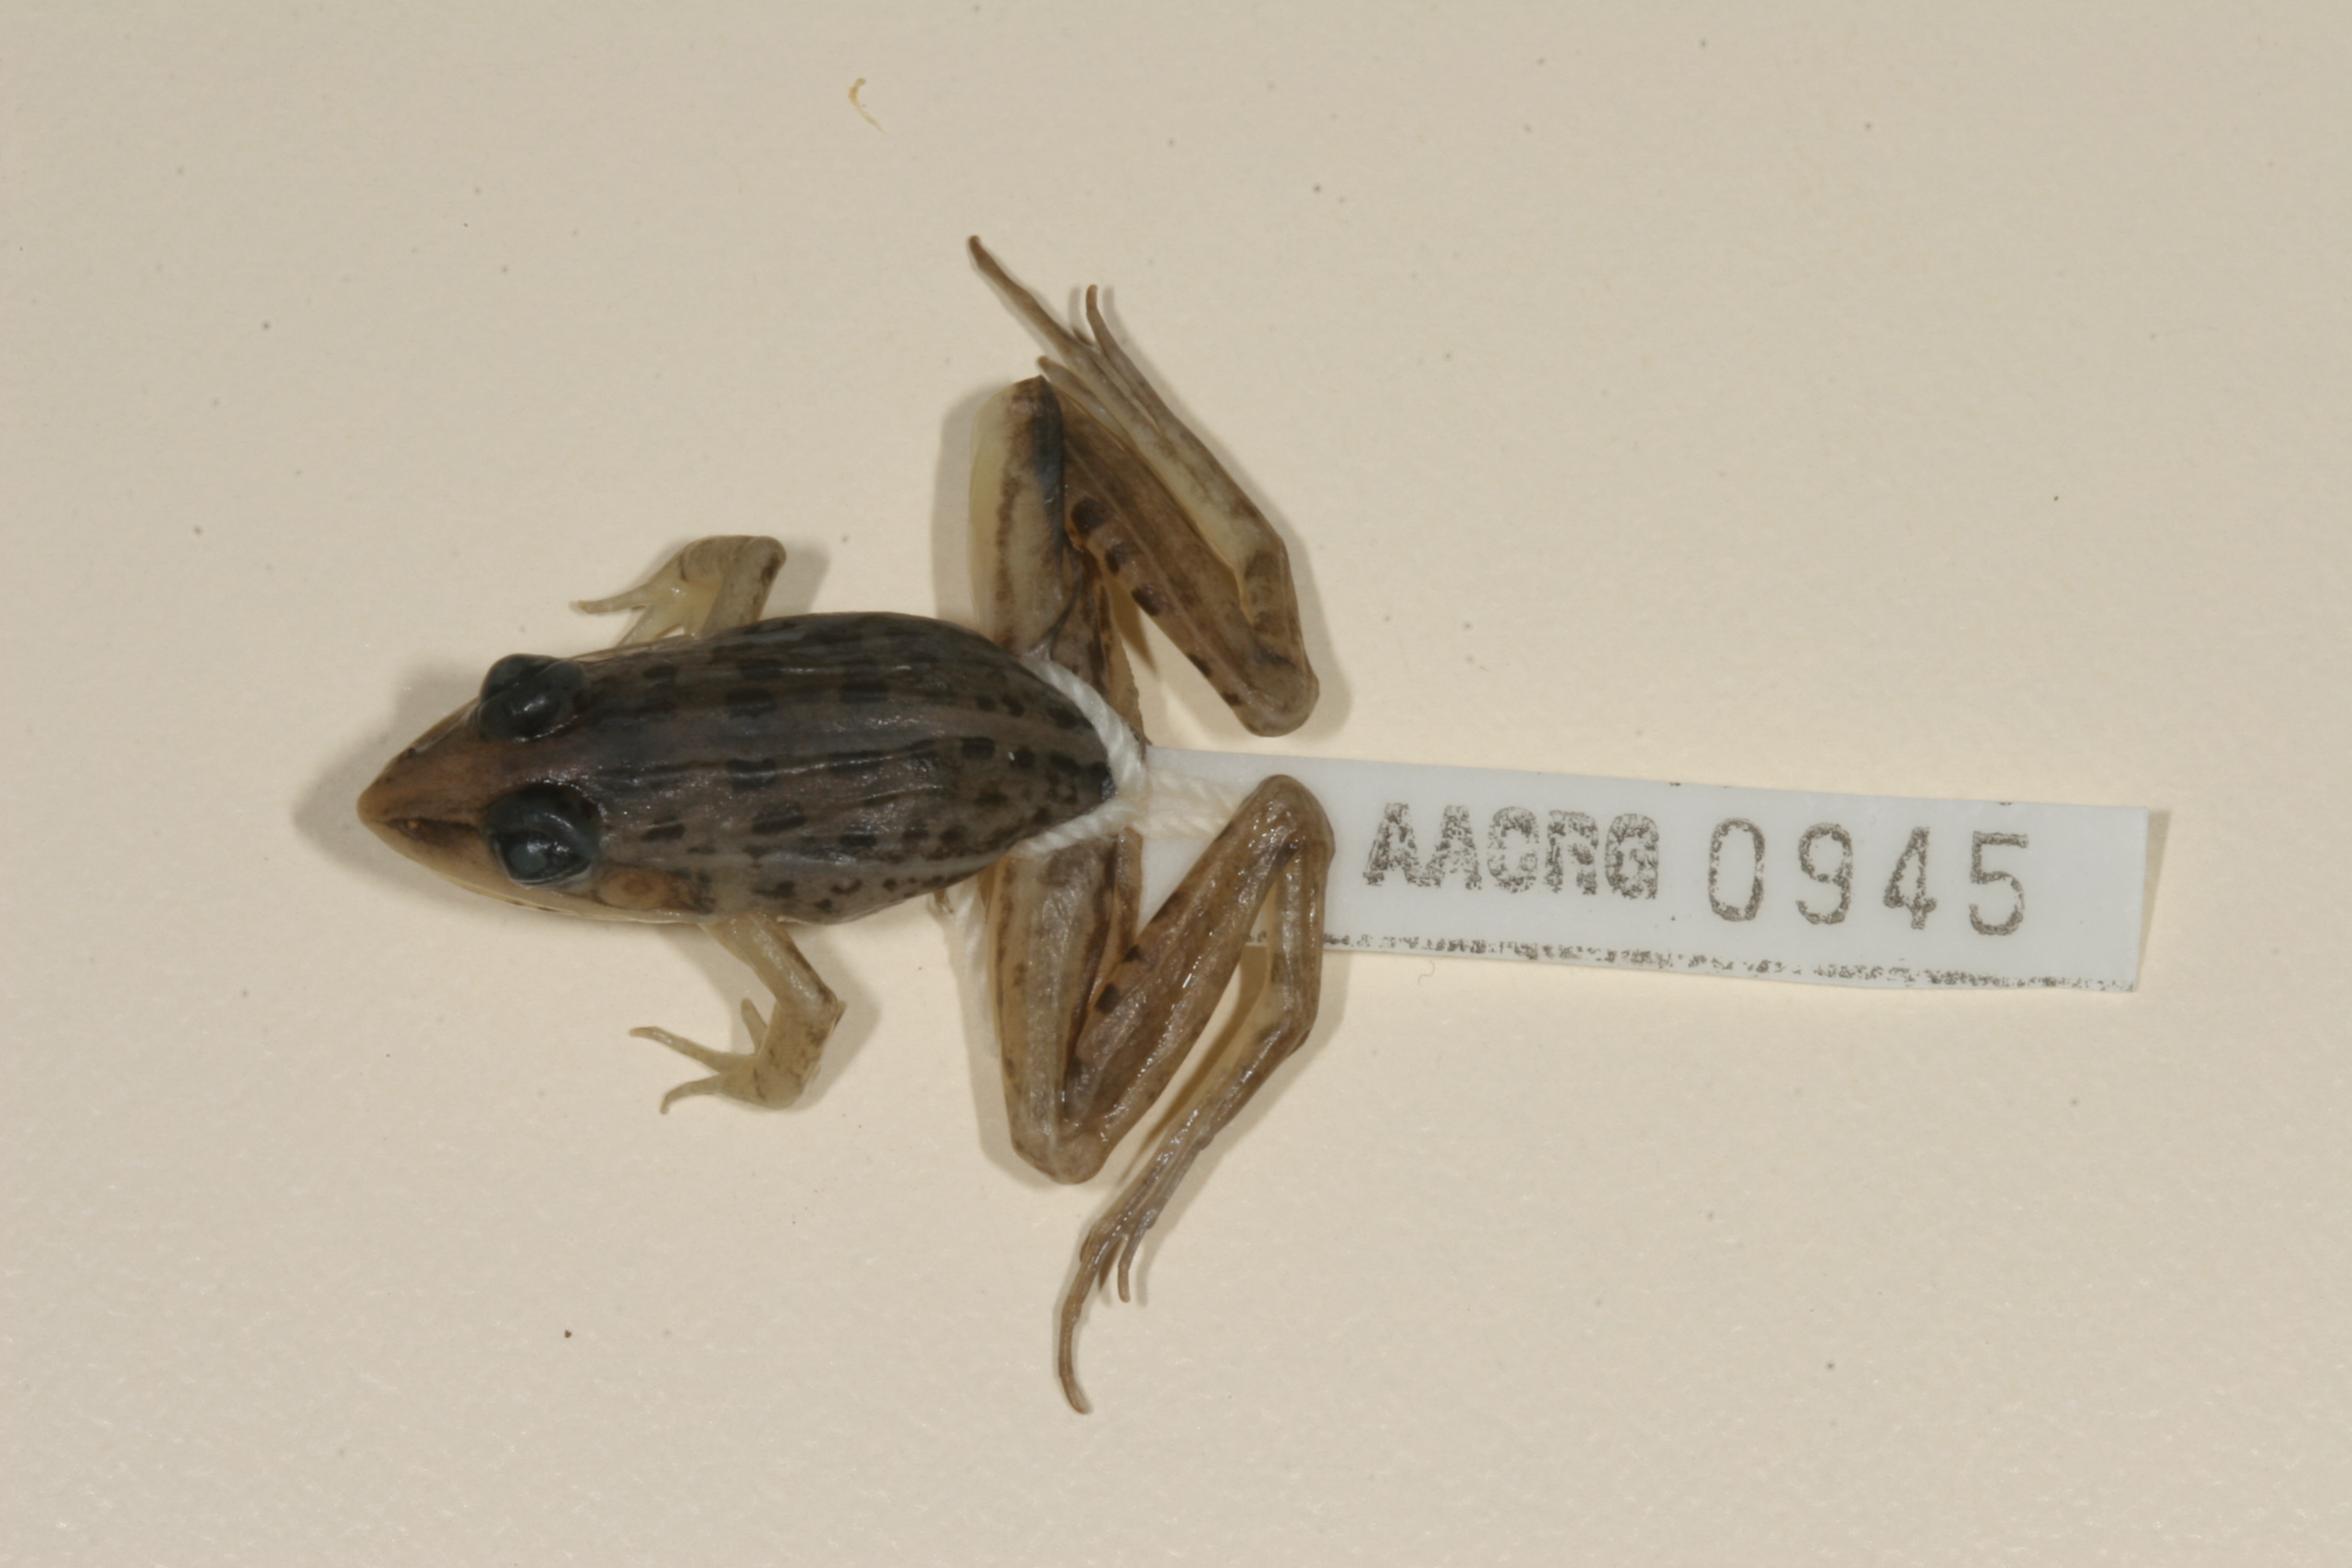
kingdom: Animalia
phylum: Chordata
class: Amphibia
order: Anura
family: Ptychadenidae
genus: Ptychadena
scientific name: Ptychadena guibei
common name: Guibe's grassland frog
